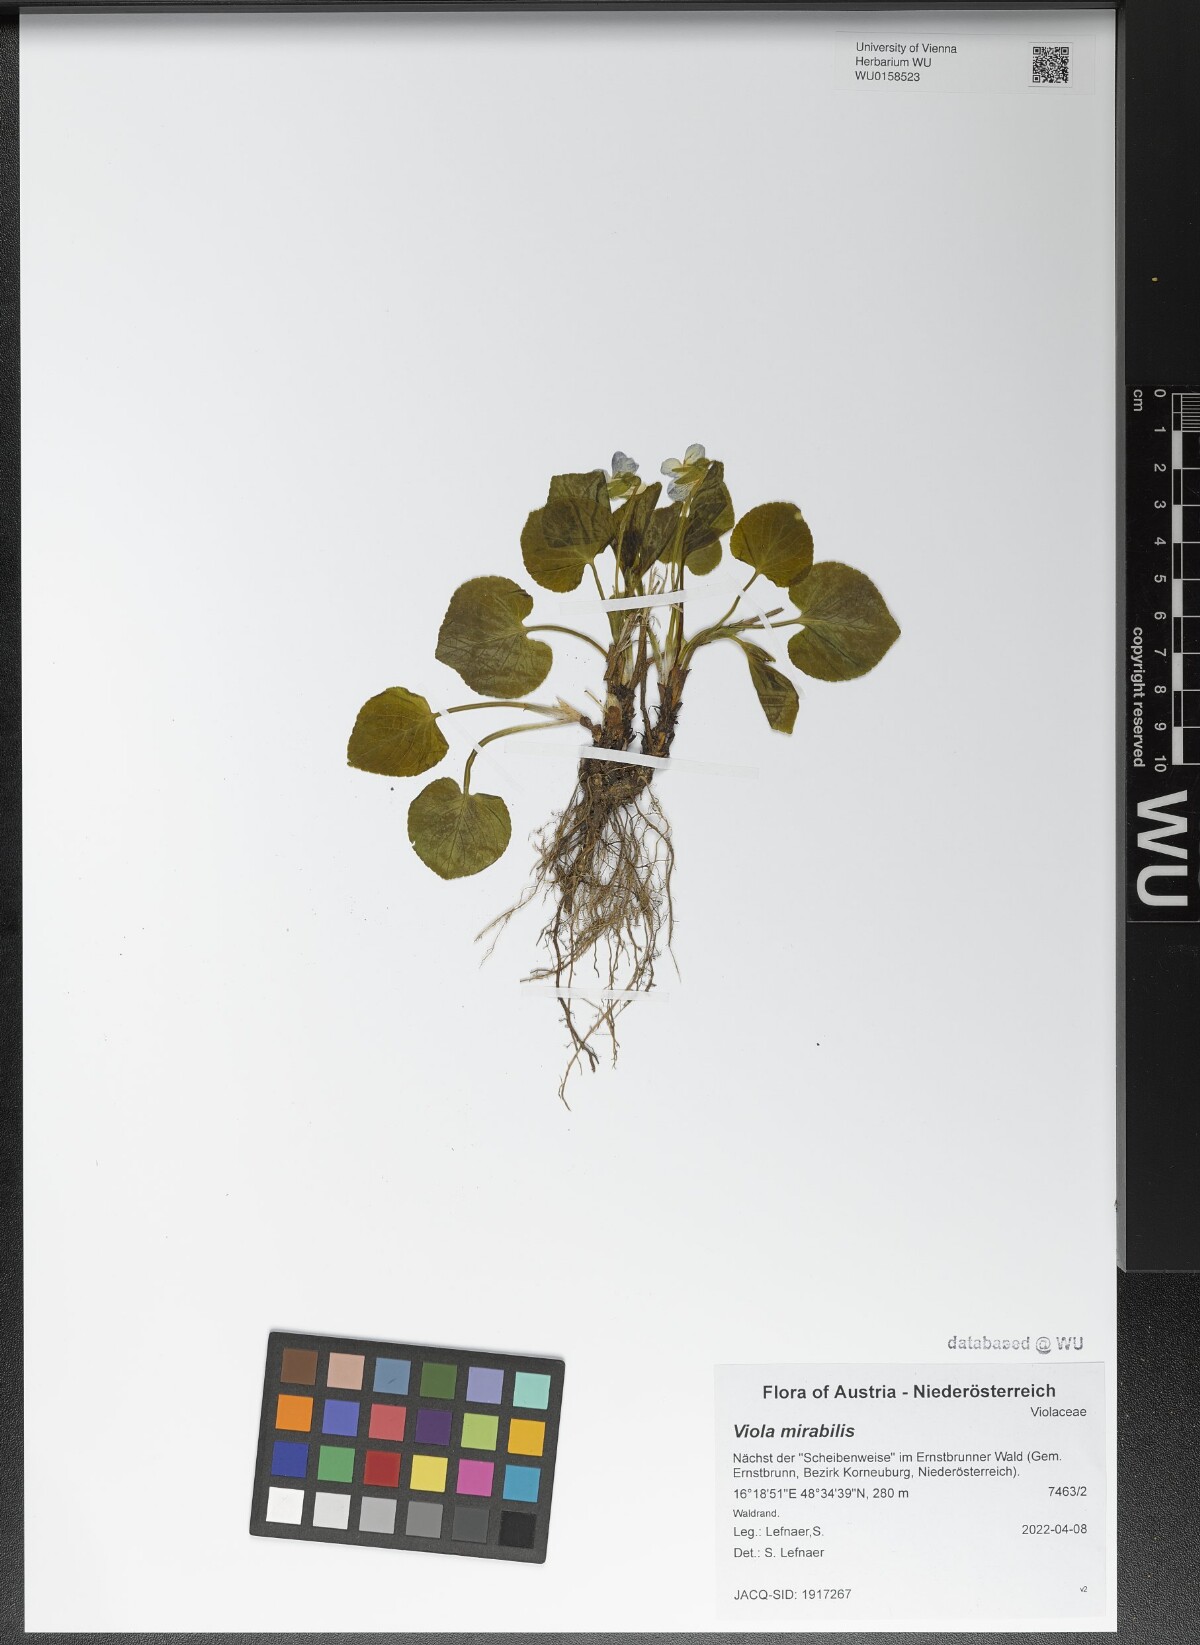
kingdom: Plantae
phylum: Tracheophyta
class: Magnoliopsida
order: Malpighiales
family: Violaceae
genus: Viola
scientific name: Viola mirabilis
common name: Wonder violet
